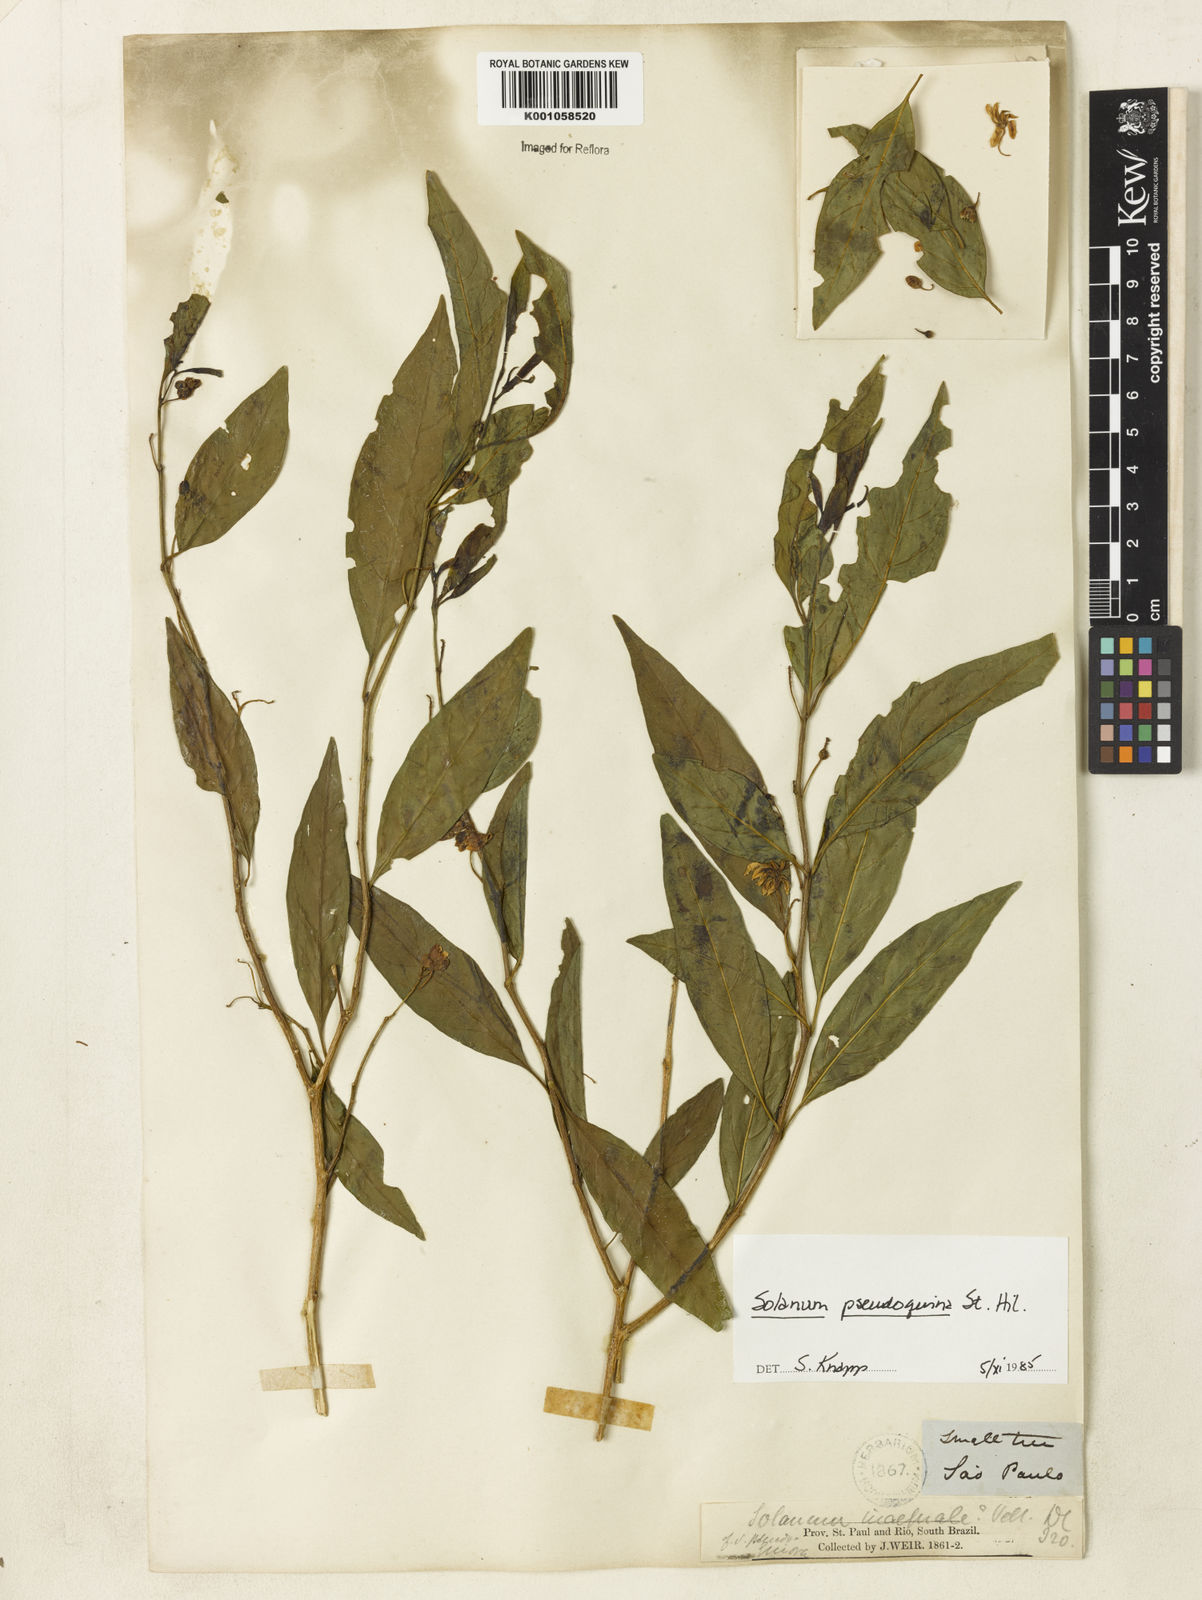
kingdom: Plantae
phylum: Tracheophyta
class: Magnoliopsida
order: Solanales
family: Solanaceae
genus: Solanum
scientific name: Solanum pseudoquina
